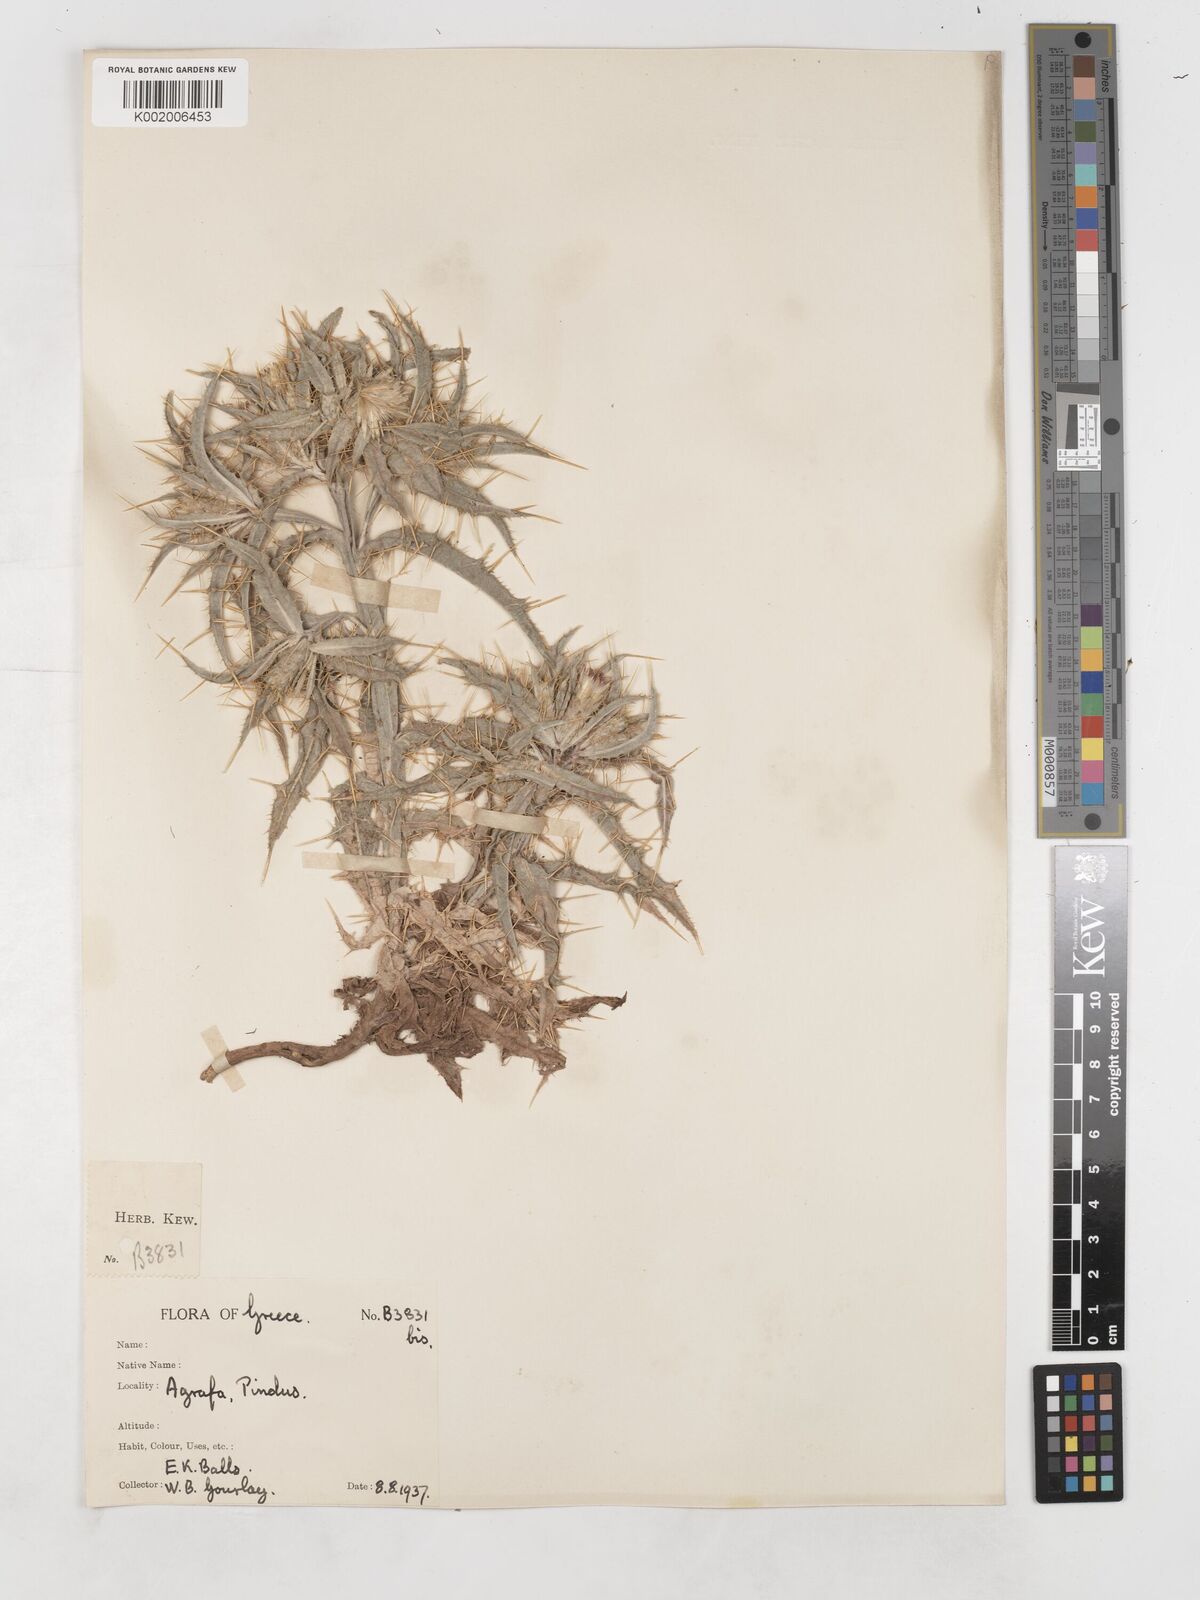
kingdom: Plantae
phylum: Tracheophyta
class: Magnoliopsida
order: Asterales
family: Asteraceae
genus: Picnomon
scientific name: Picnomon acarna
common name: Soldier thistle
